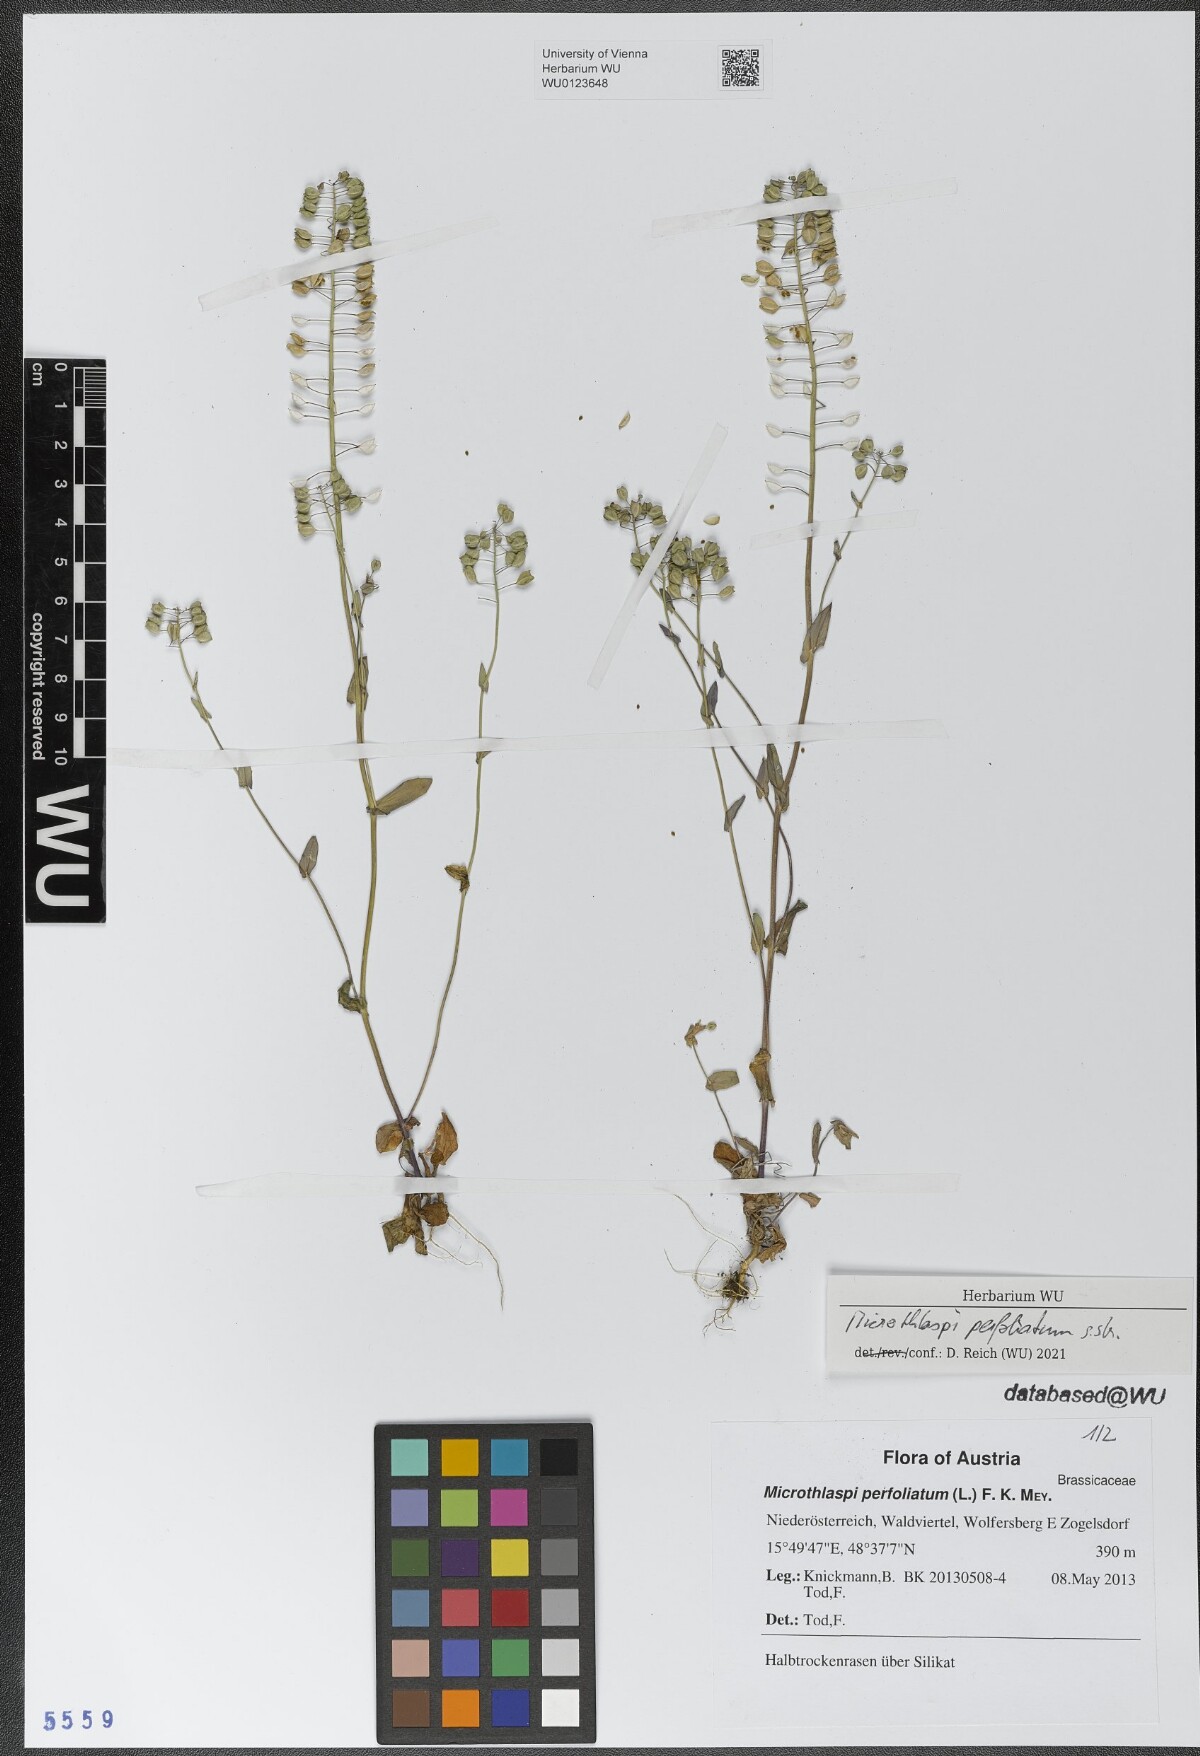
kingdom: Plantae
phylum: Tracheophyta
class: Magnoliopsida
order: Brassicales
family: Brassicaceae
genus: Noccaea
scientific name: Noccaea perfoliata
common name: Perfoliate pennycress
